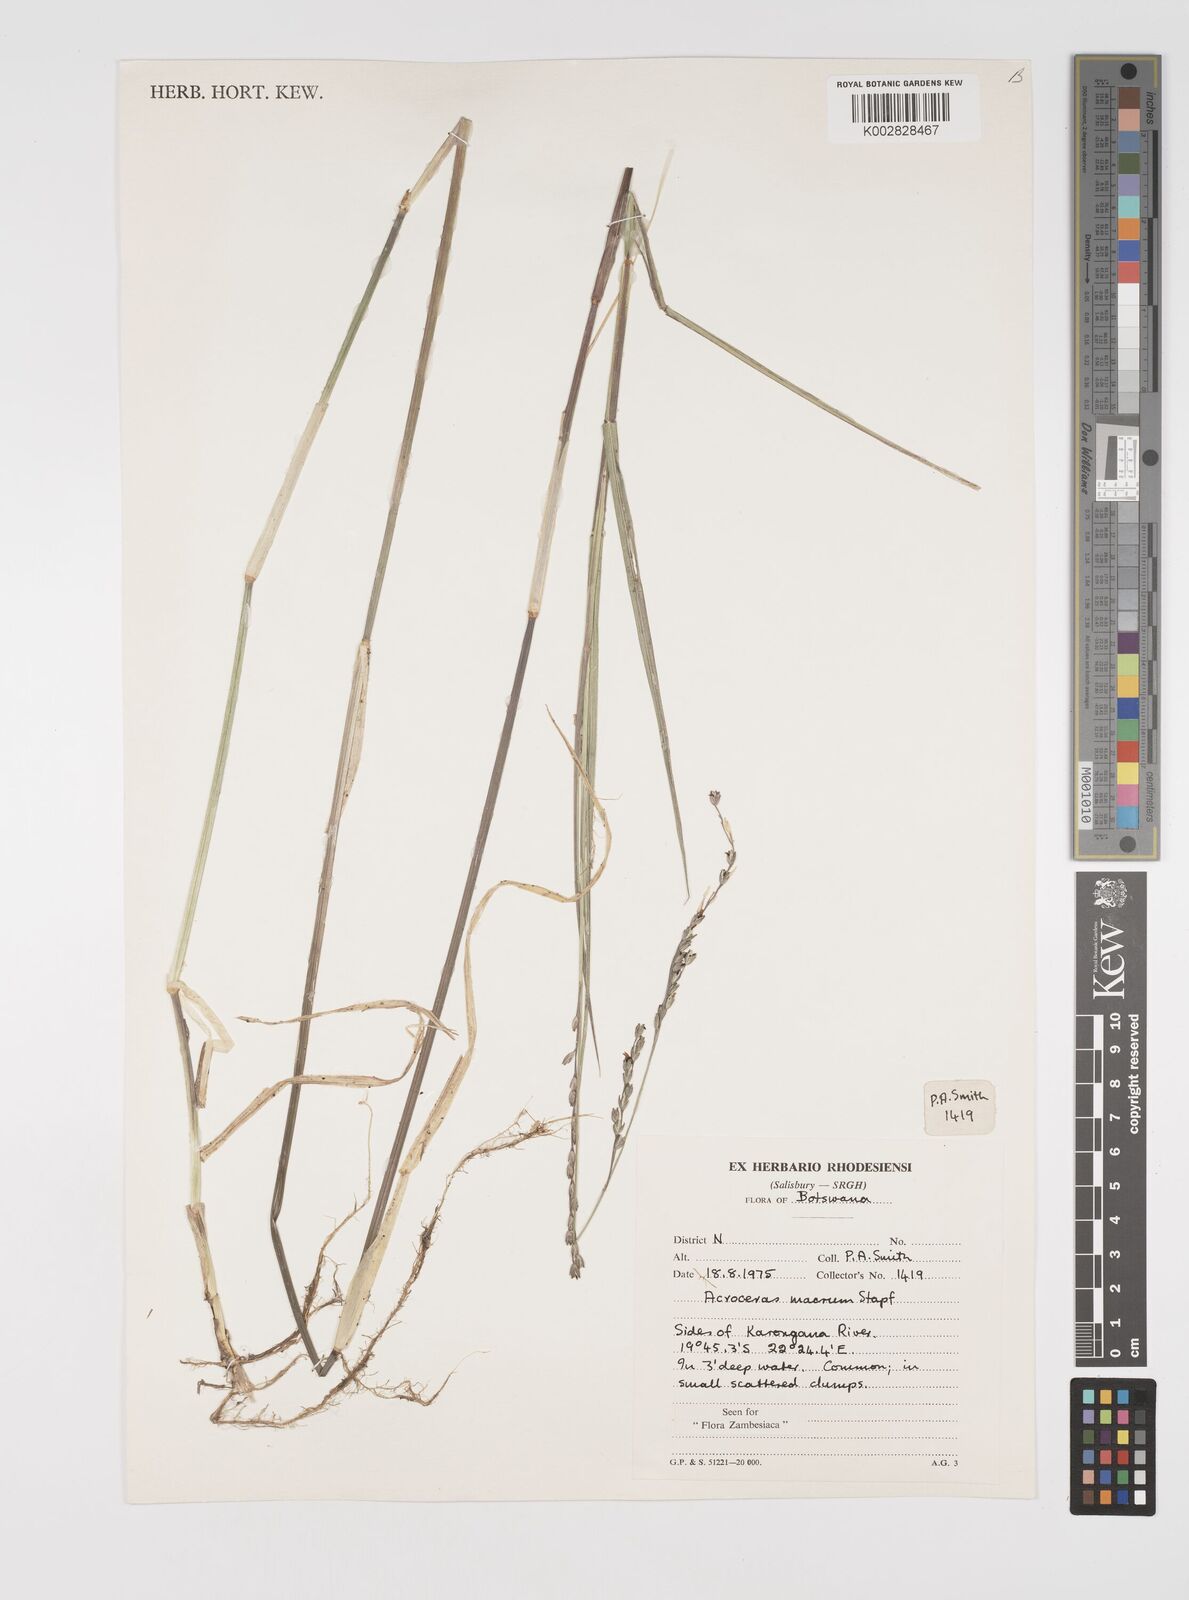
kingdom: Plantae
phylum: Tracheophyta
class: Liliopsida
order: Poales
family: Poaceae
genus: Acroceras
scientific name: Acroceras macrum
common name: Nyl grass
